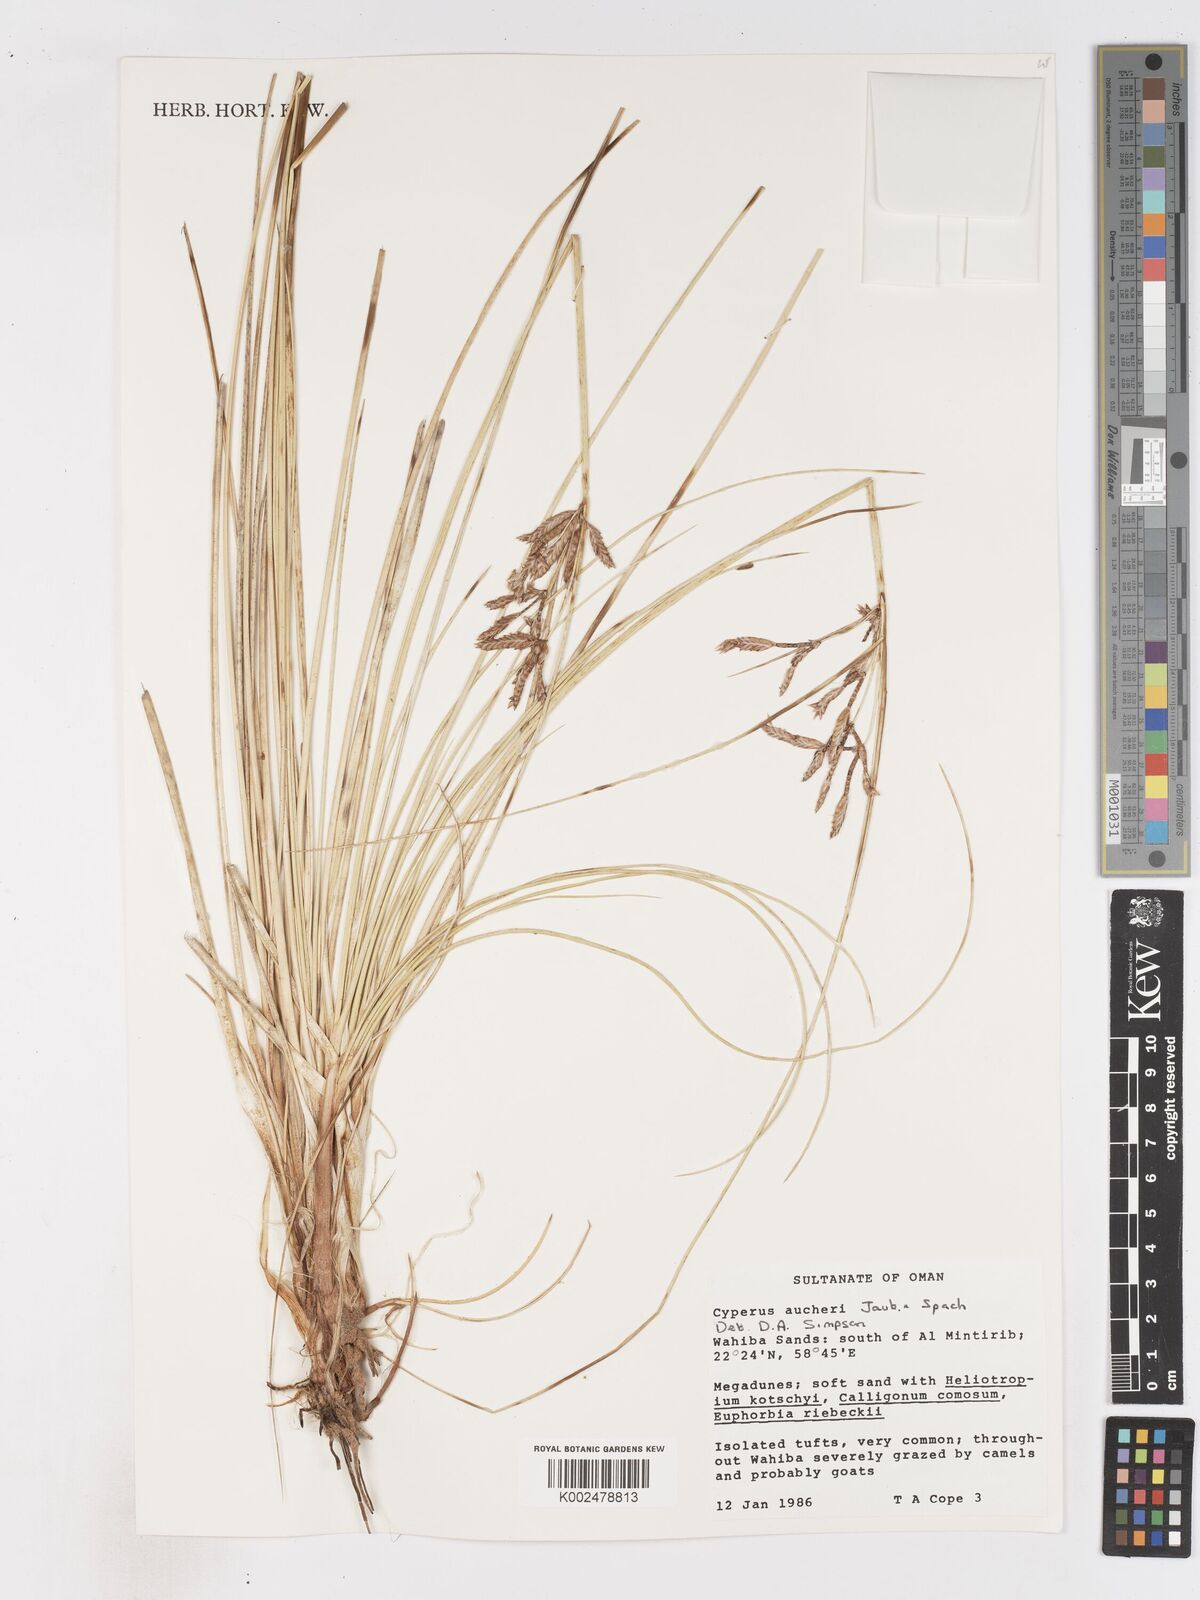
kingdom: Plantae
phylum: Tracheophyta
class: Liliopsida
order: Poales
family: Cyperaceae
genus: Cyperus
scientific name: Cyperus aucheri
